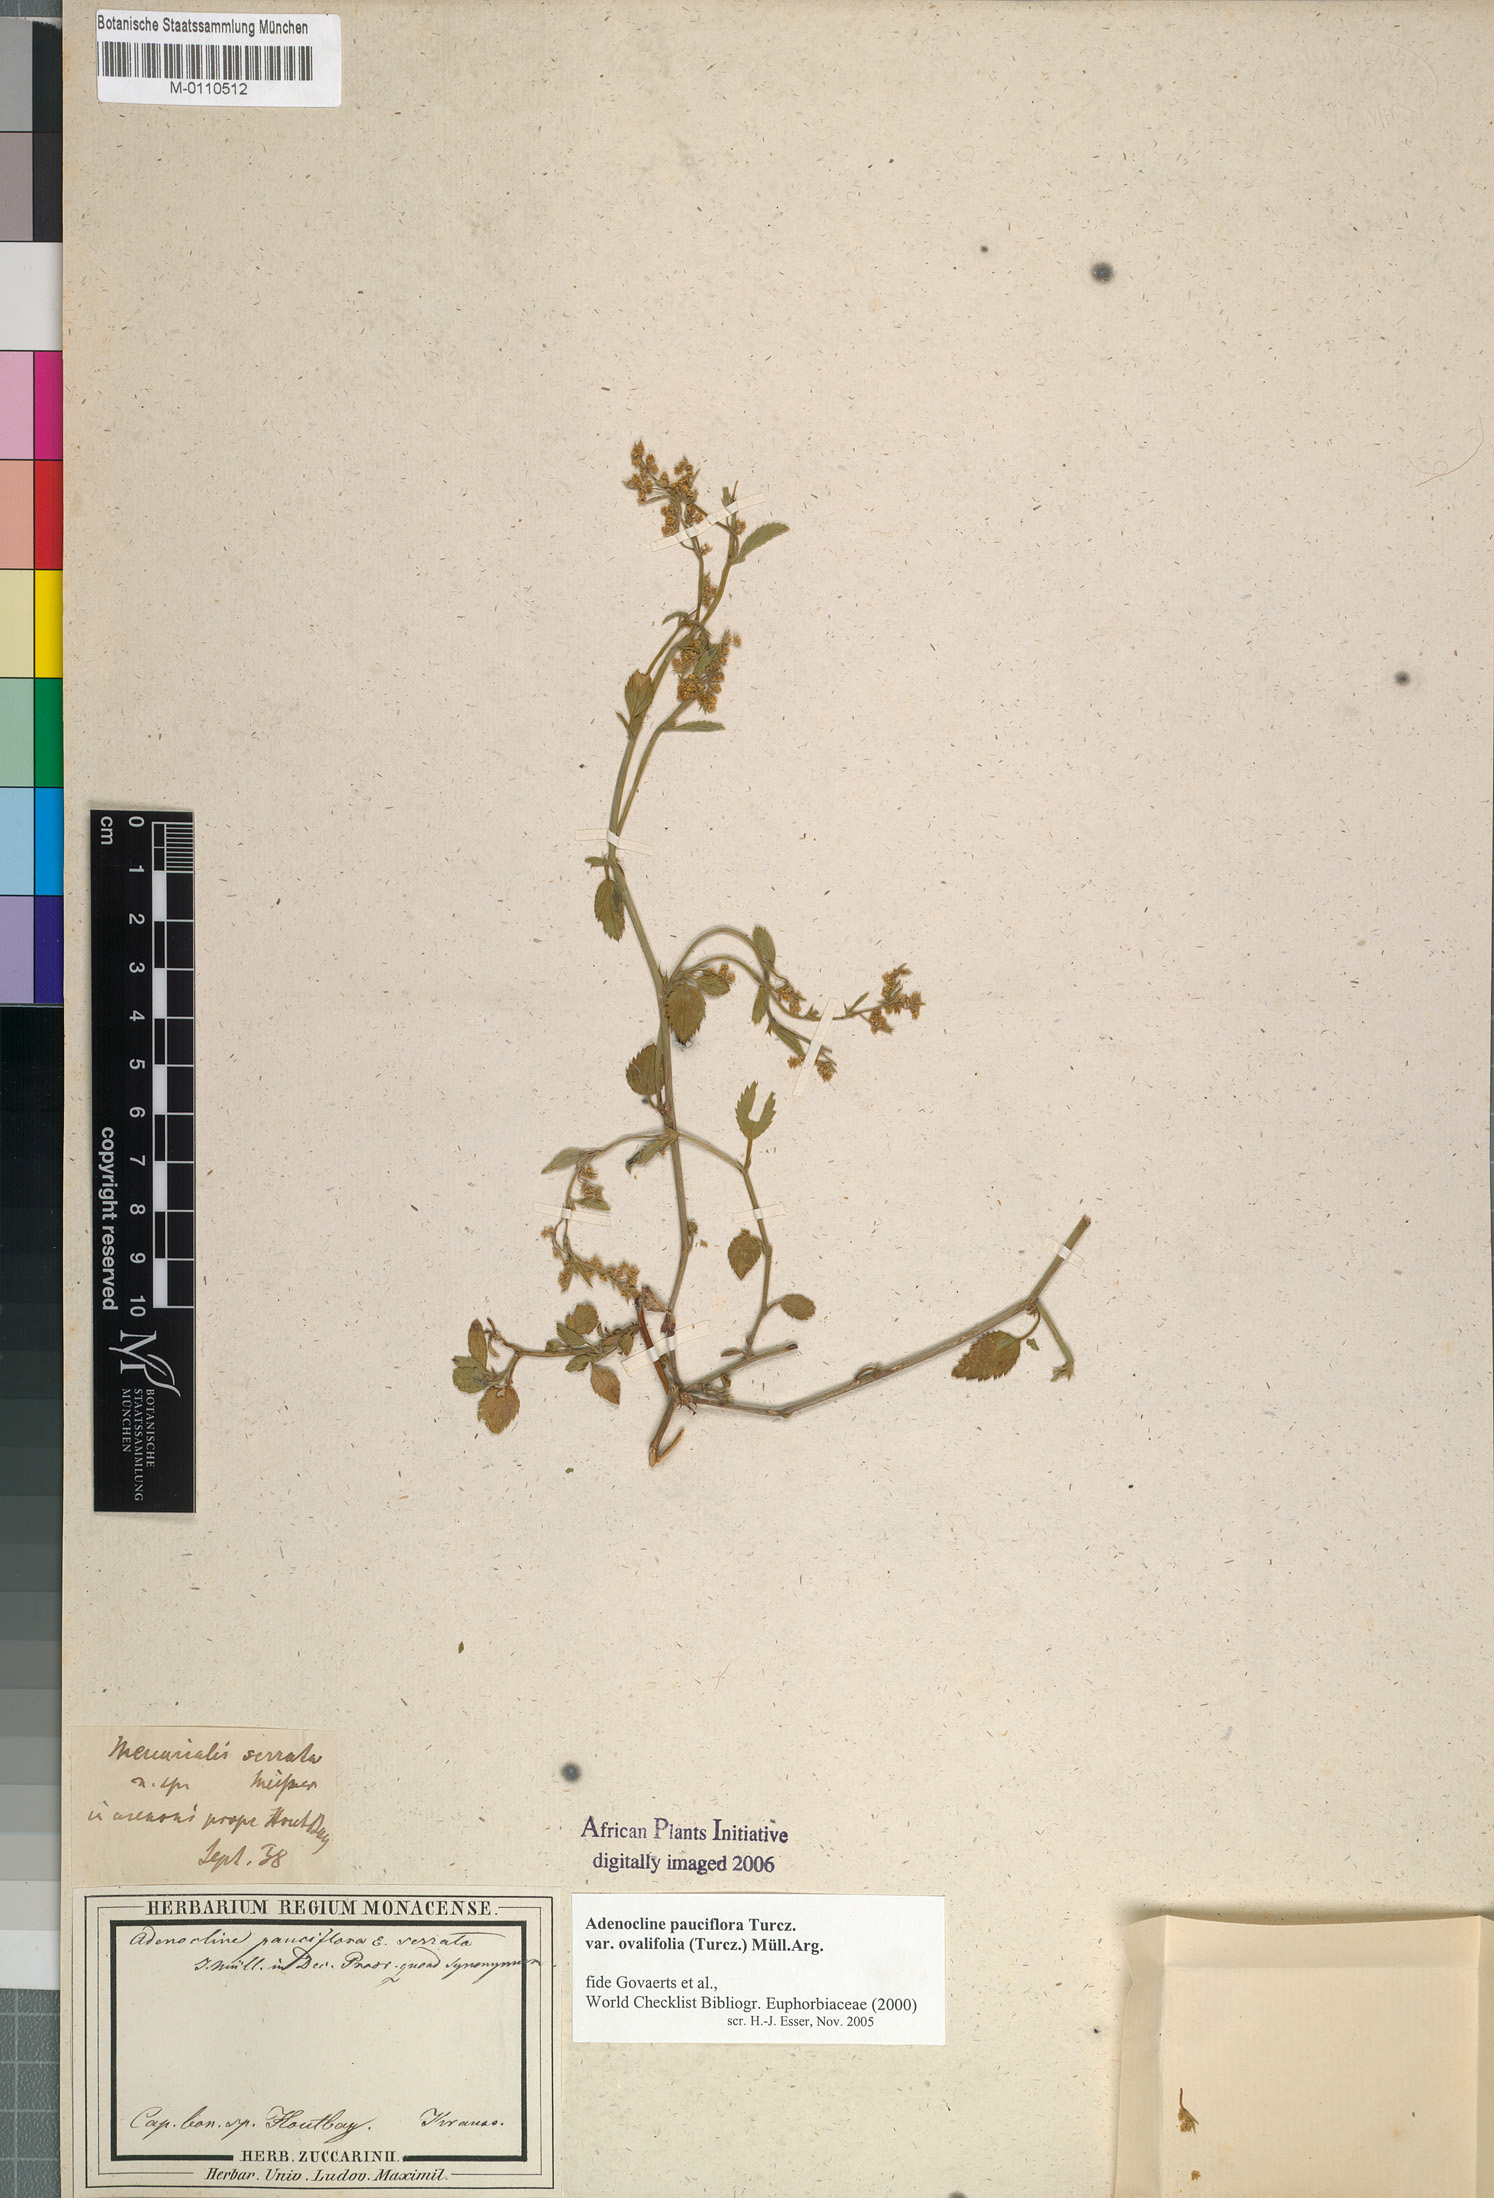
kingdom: Plantae
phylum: Tracheophyta
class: Magnoliopsida
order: Malpighiales
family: Euphorbiaceae
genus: Adenocline
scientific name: Adenocline pauciflora
